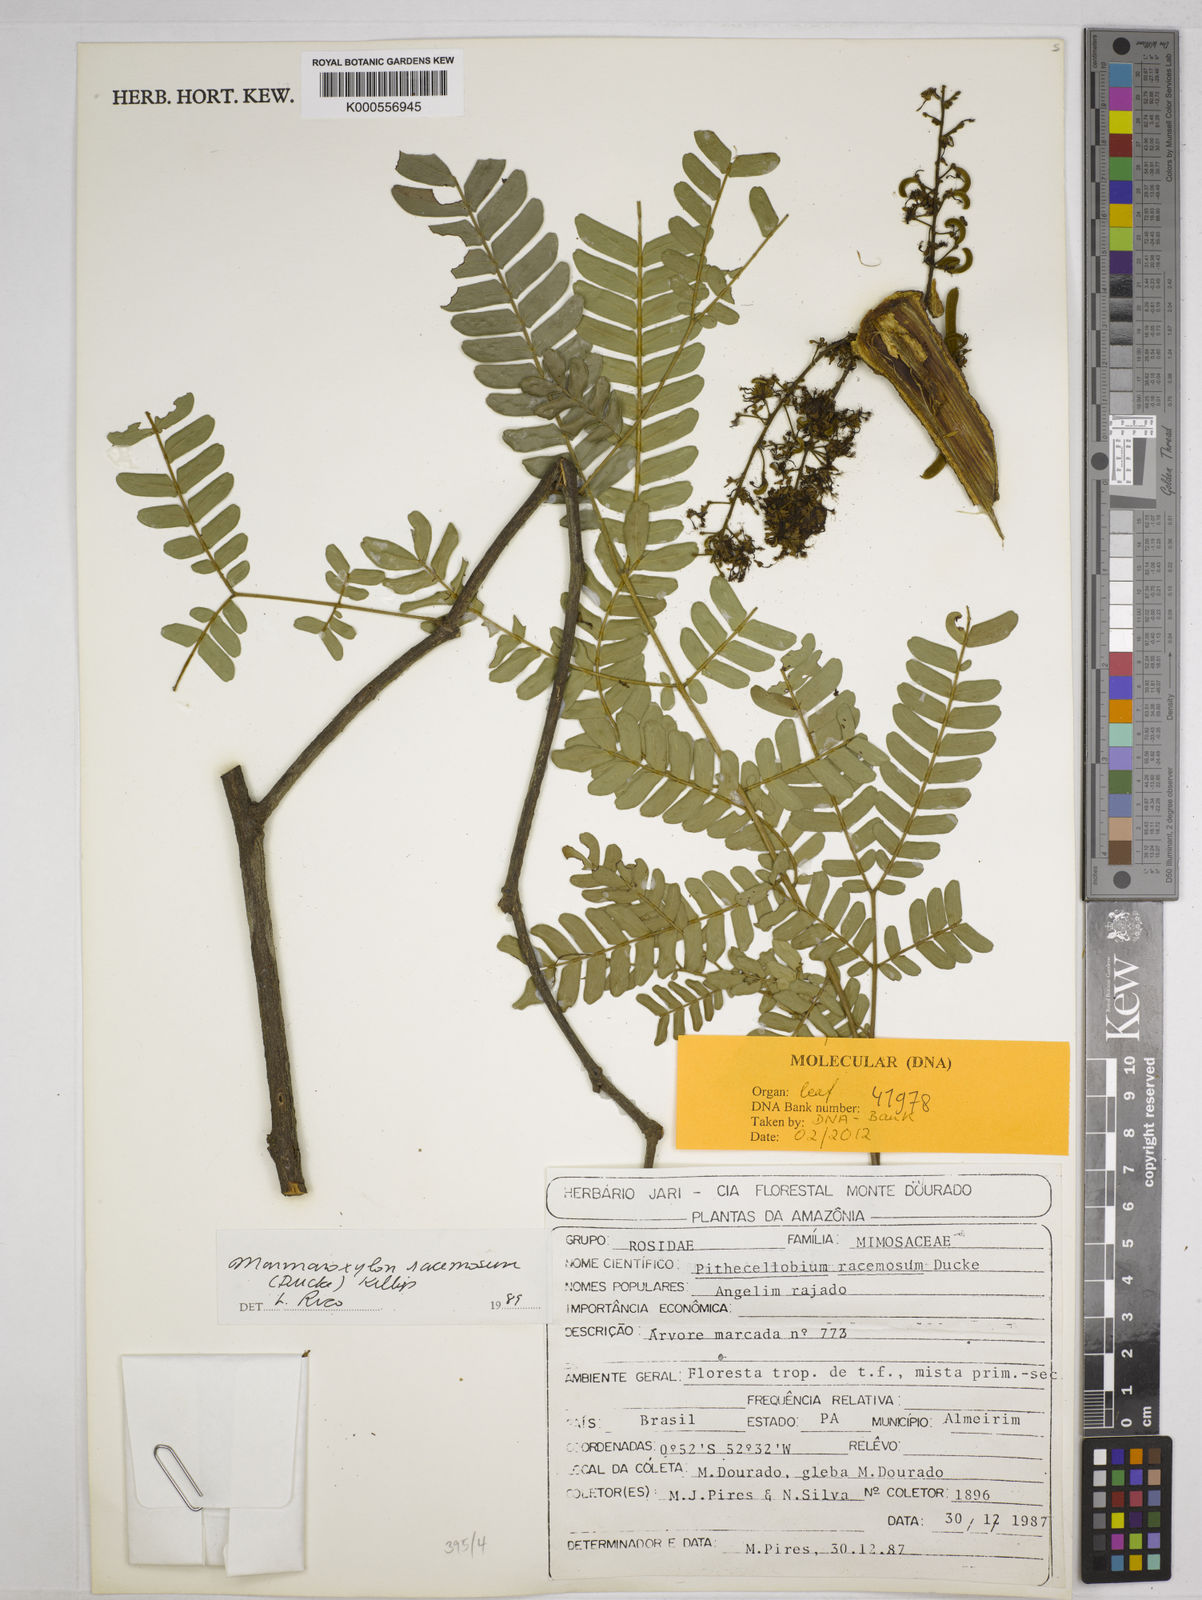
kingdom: Plantae
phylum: Tracheophyta
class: Magnoliopsida
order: Fabales
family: Fabaceae
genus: Zygia
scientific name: Zygia racemosa
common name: Marblewood
